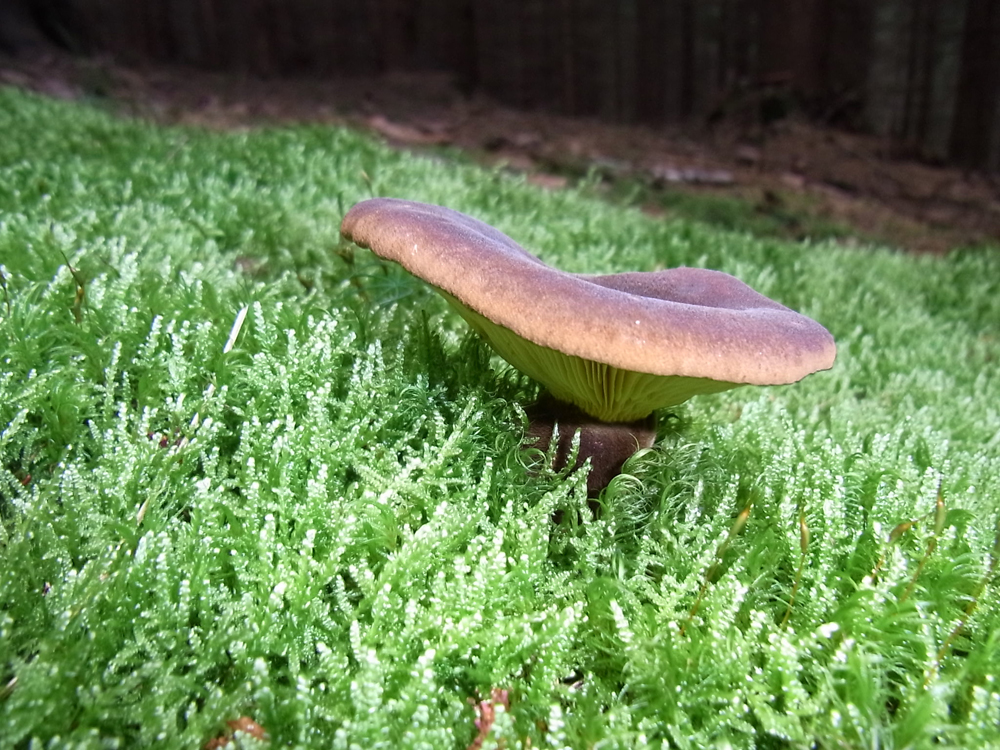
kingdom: Fungi
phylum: Basidiomycota
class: Agaricomycetes
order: Boletales
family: Tapinellaceae
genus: Tapinella
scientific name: Tapinella atrotomentosa
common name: Velvet rollrim
